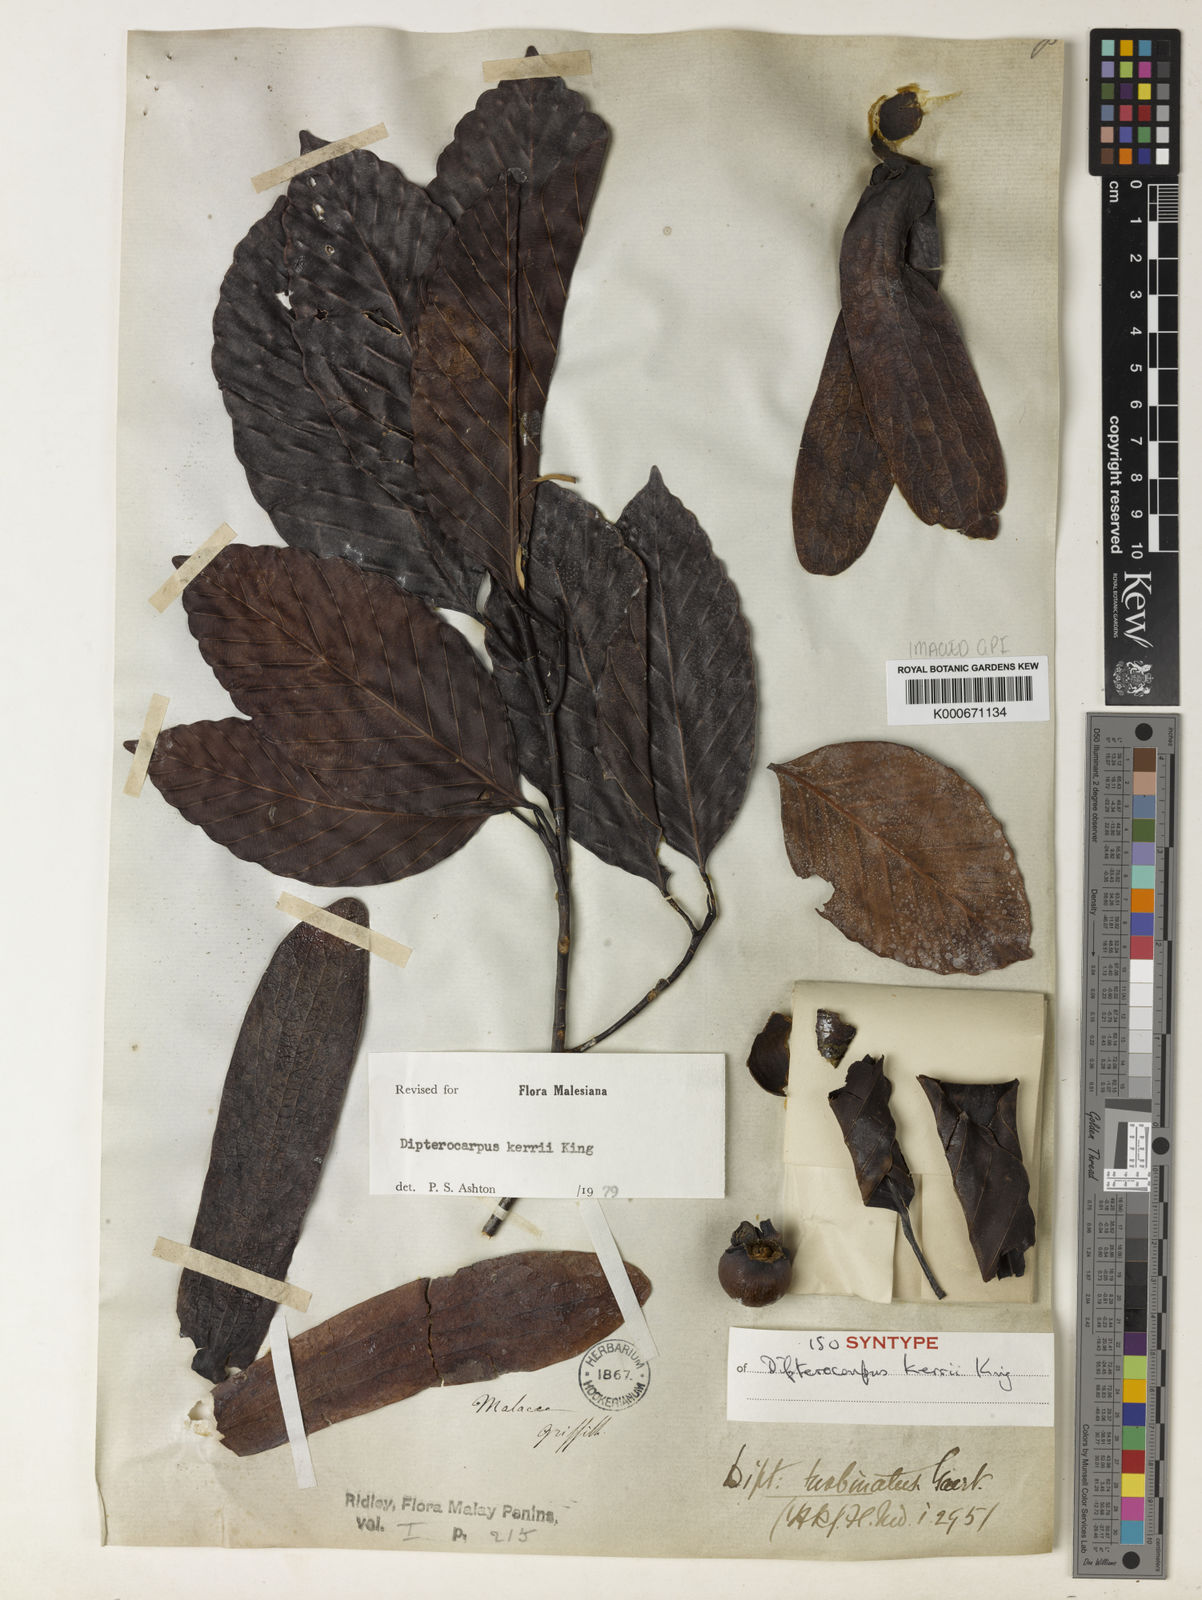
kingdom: Plantae
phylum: Tracheophyta
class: Magnoliopsida
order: Malvales
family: Dipterocarpaceae
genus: Dipterocarpus
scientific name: Dipterocarpus kerrii
